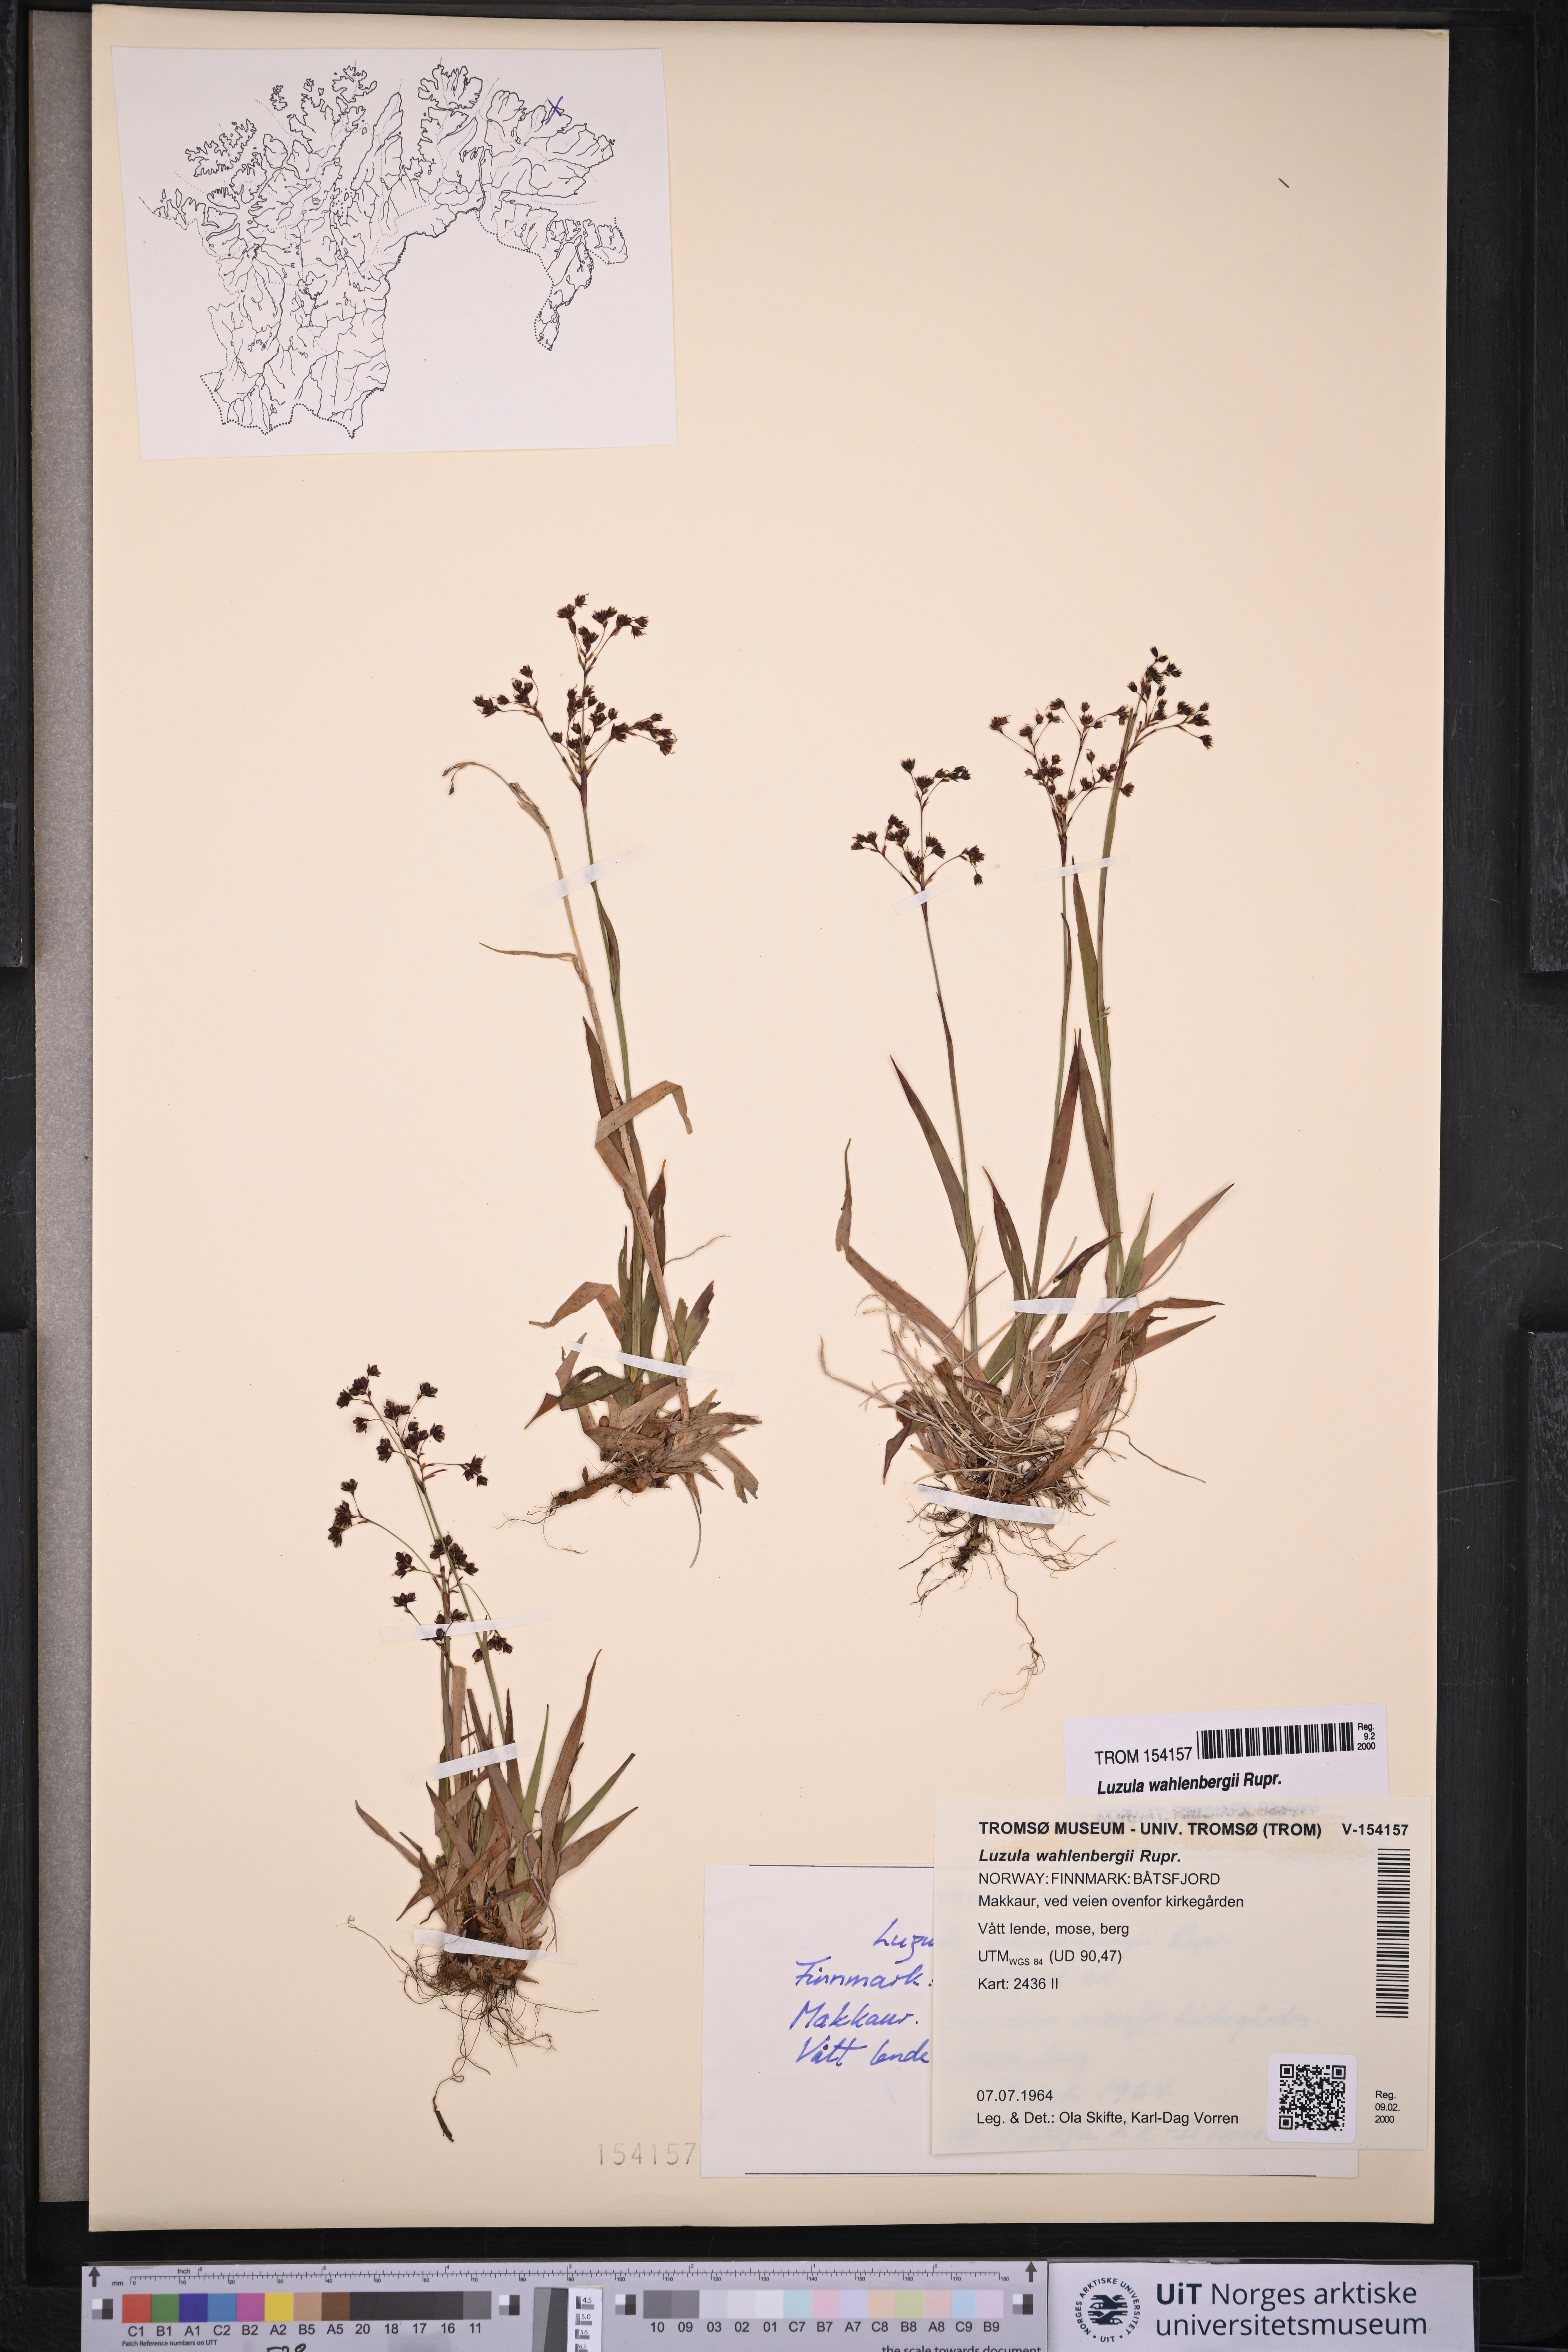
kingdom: Plantae
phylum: Tracheophyta
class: Liliopsida
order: Poales
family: Juncaceae
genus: Luzula
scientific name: Luzula wahlenbergii
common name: Wahlenberg's wood-rush
